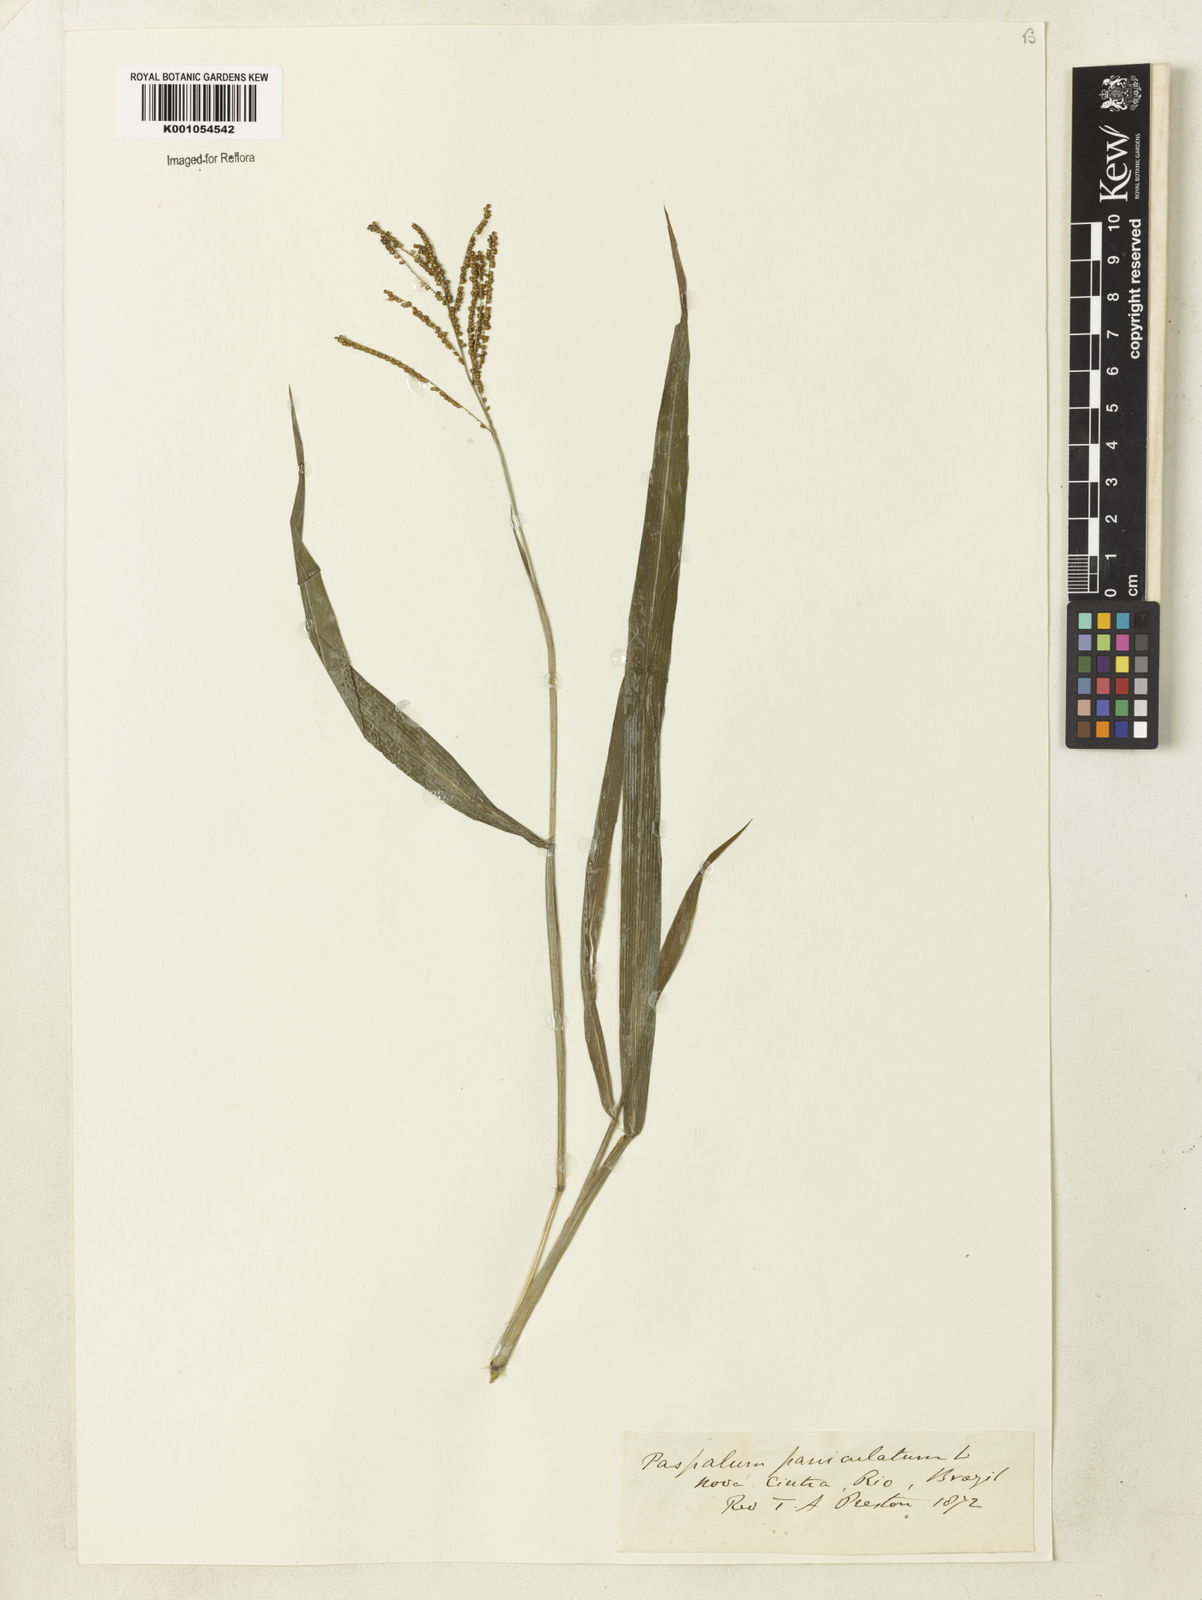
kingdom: Plantae
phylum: Tracheophyta
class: Liliopsida
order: Poales
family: Poaceae
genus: Paspalum
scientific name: Paspalum paniculatum
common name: Arrocillo
